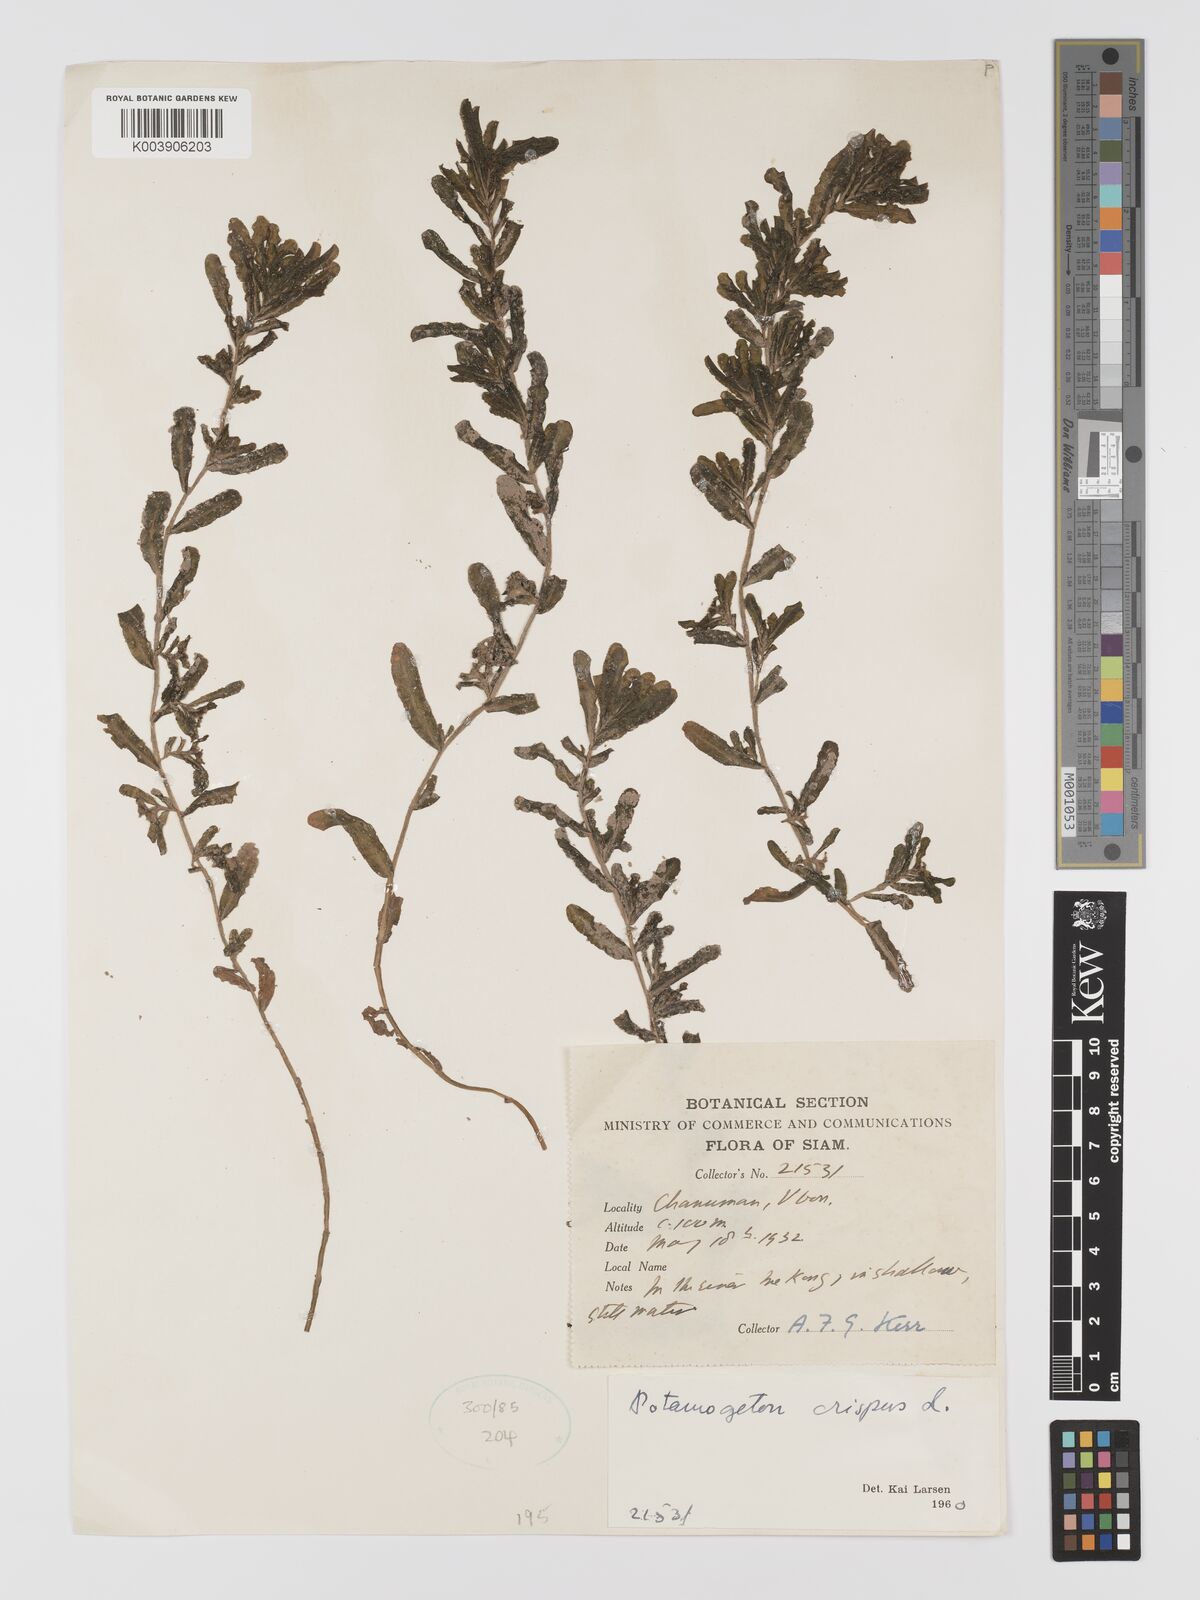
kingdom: Plantae
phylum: Tracheophyta
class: Liliopsida
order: Alismatales
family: Potamogetonaceae
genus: Potamogeton
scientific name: Potamogeton crispus
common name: Curled pondweed
